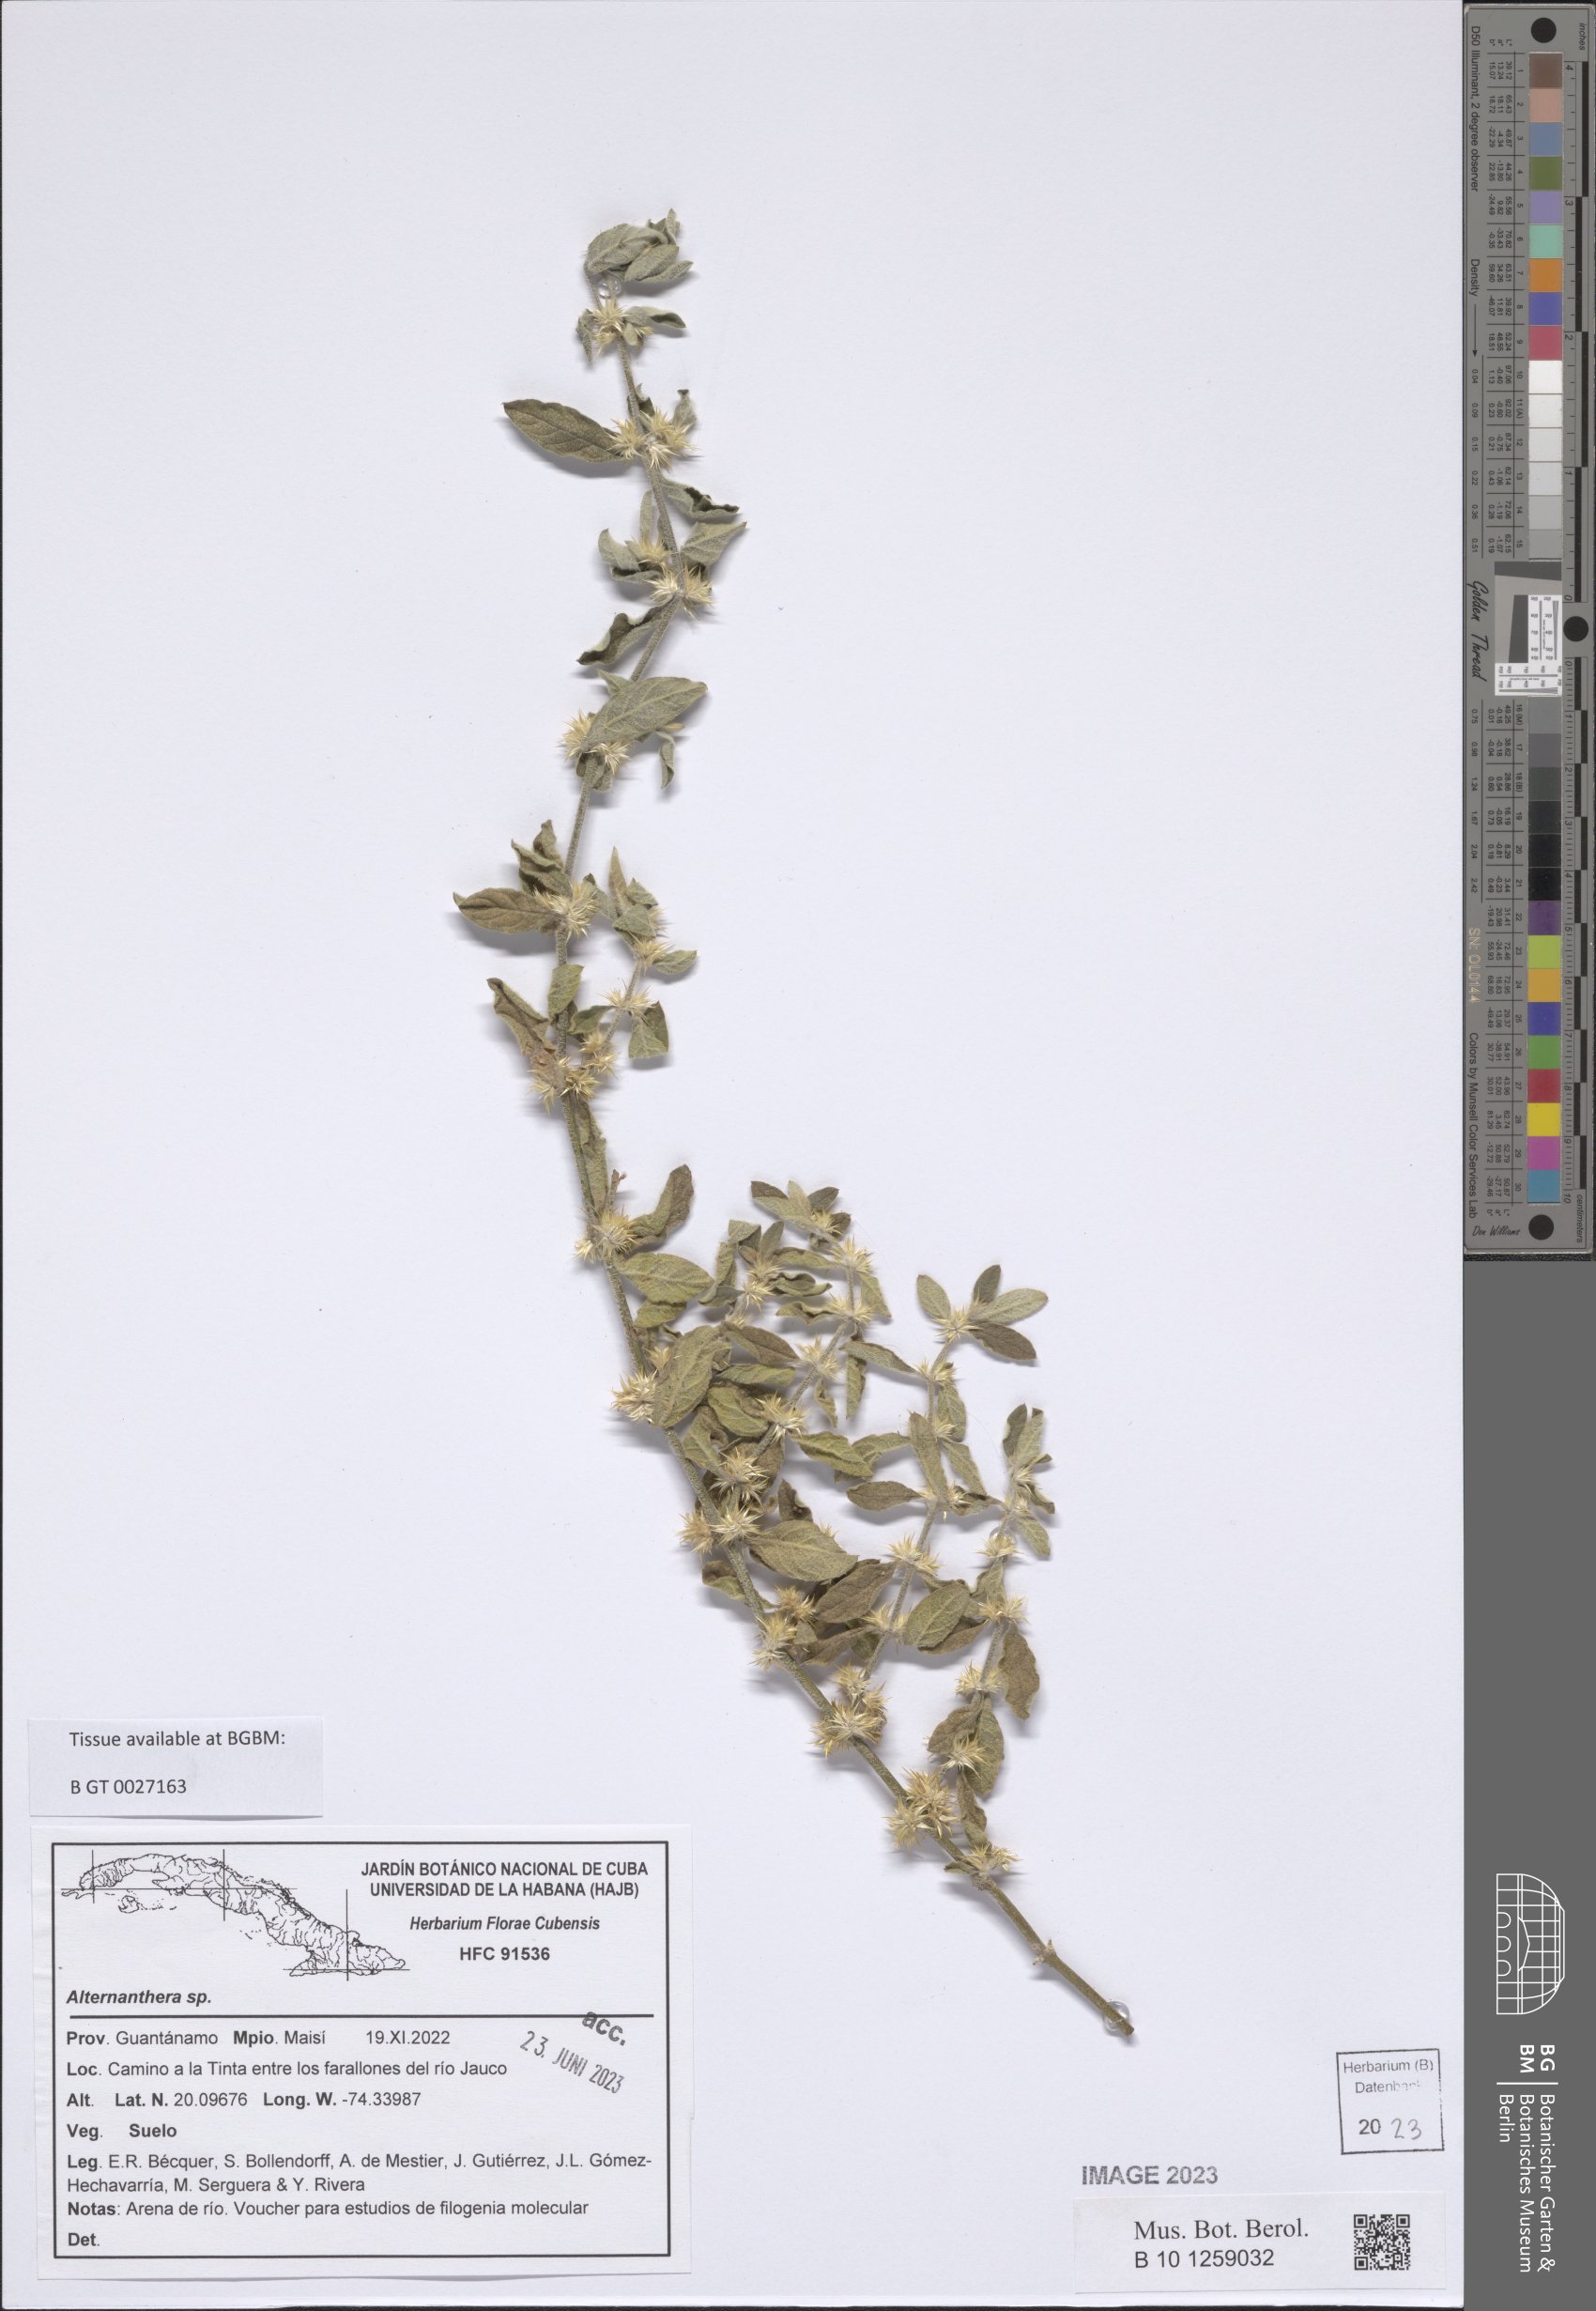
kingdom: Plantae
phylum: Tracheophyta
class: Magnoliopsida
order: Caryophyllales
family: Amaranthaceae
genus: Alternanthera
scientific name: Alternanthera
